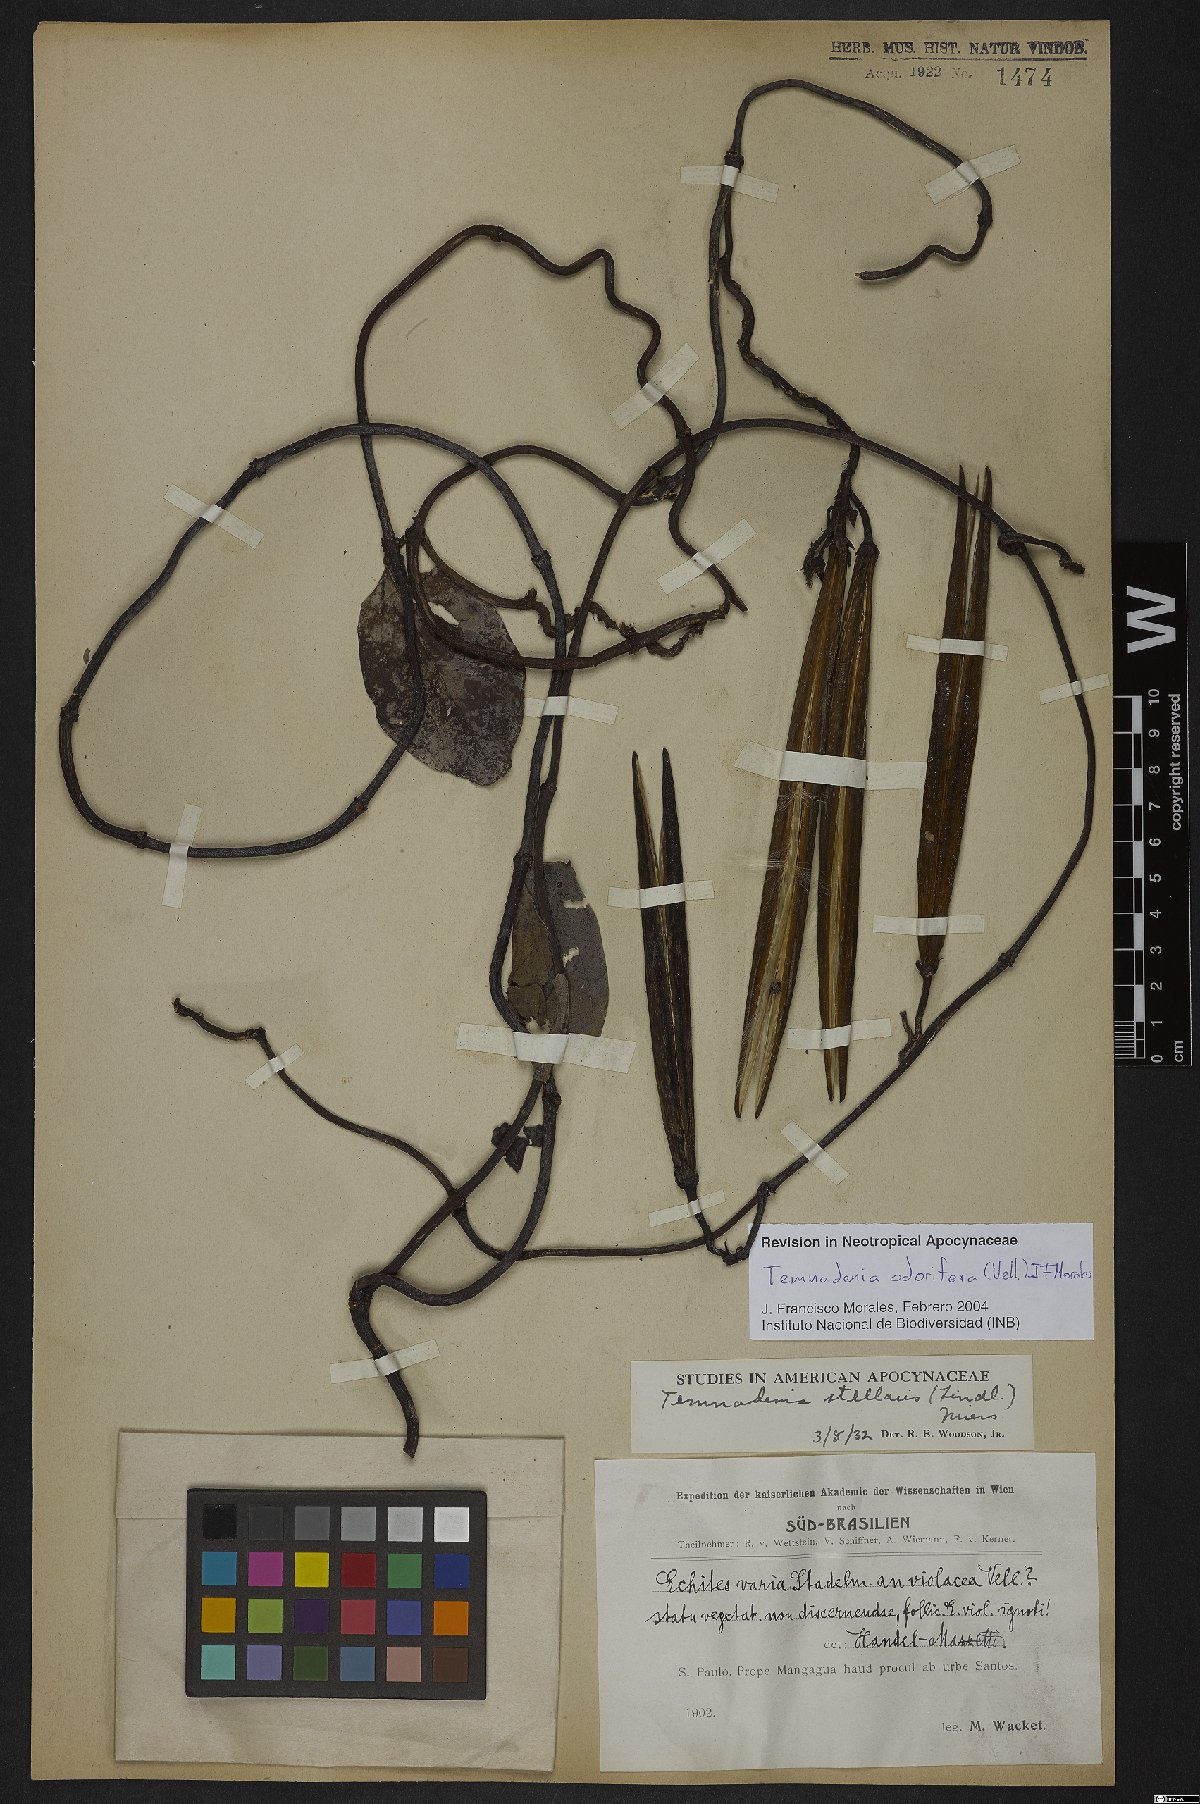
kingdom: Plantae
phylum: Tracheophyta
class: Magnoliopsida
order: Gentianales
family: Apocynaceae
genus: Temnadenia
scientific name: Temnadenia odorifera
